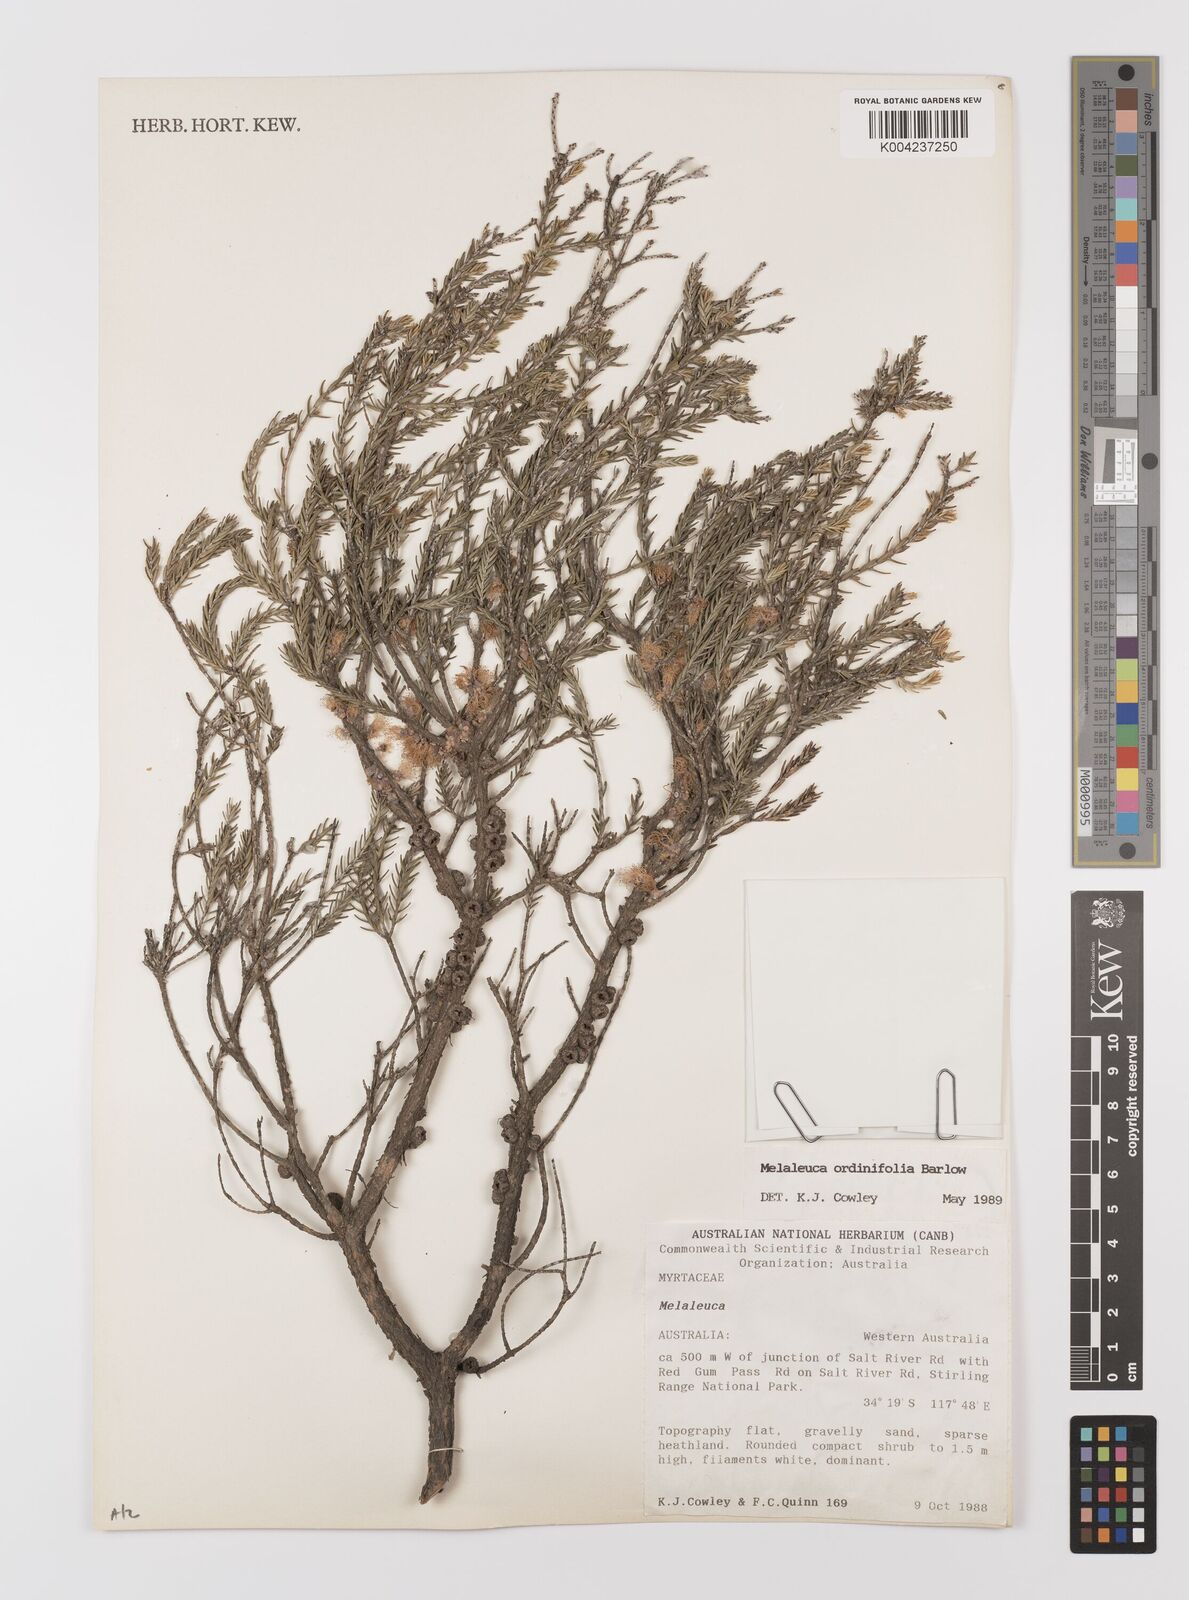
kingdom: Plantae
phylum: Tracheophyta
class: Magnoliopsida
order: Myrtales
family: Myrtaceae
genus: Melaleuca
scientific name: Melaleuca ordinifolia
